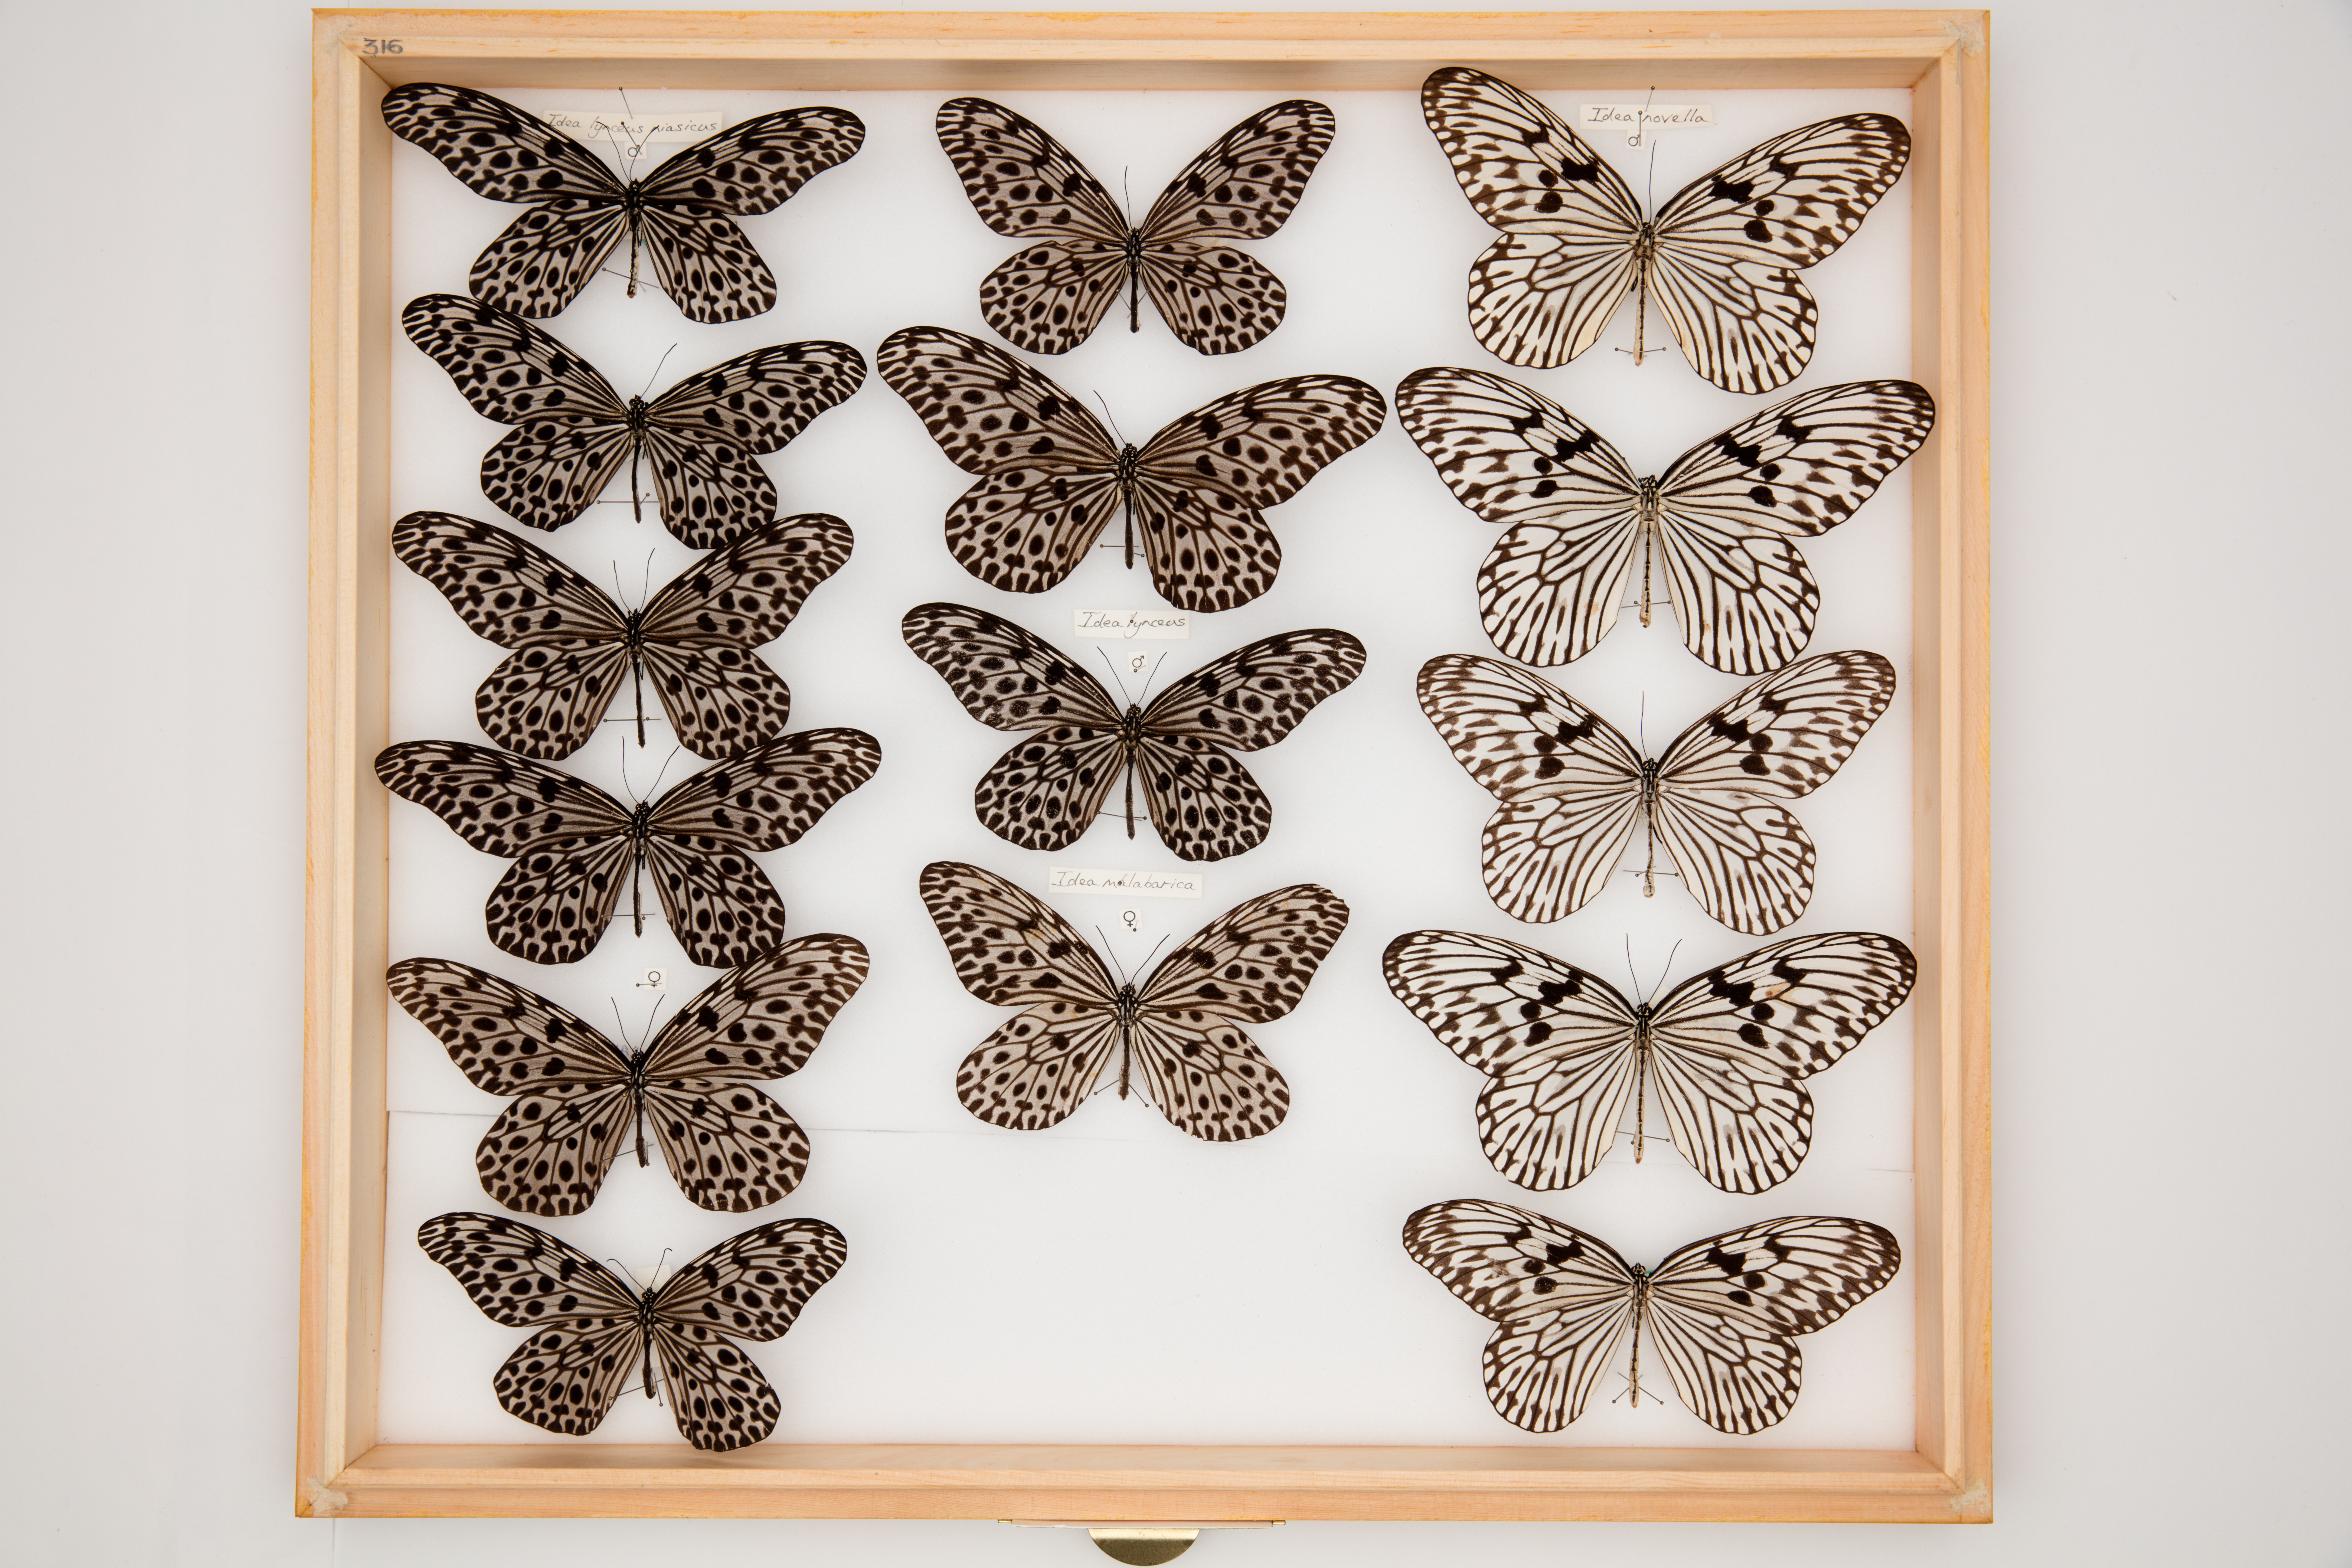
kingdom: Animalia
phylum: Arthropoda
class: Insecta
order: Lepidoptera
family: Nymphalidae
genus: Idea
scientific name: Idea
